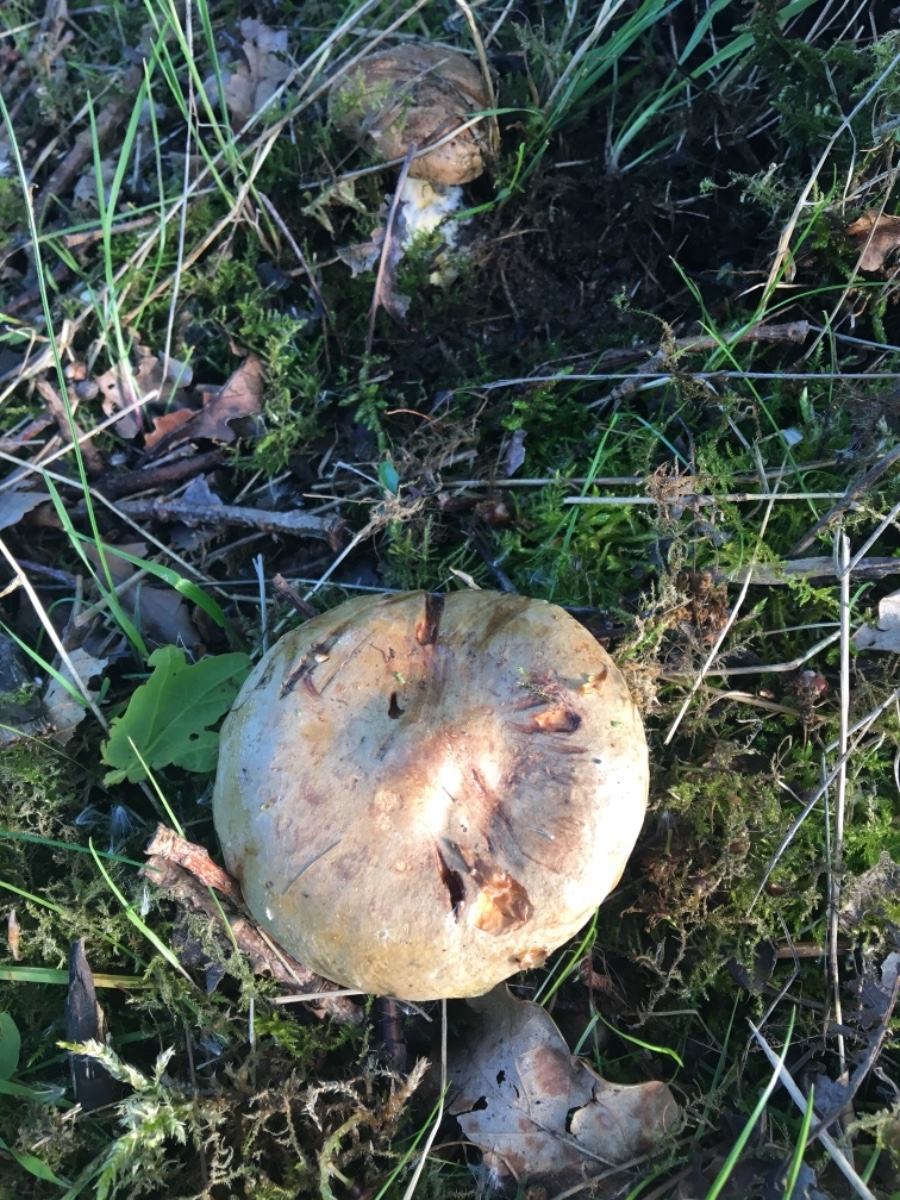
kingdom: Fungi
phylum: Basidiomycota
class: Agaricomycetes
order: Boletales
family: Paxillaceae
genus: Paxillus
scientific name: Paxillus
